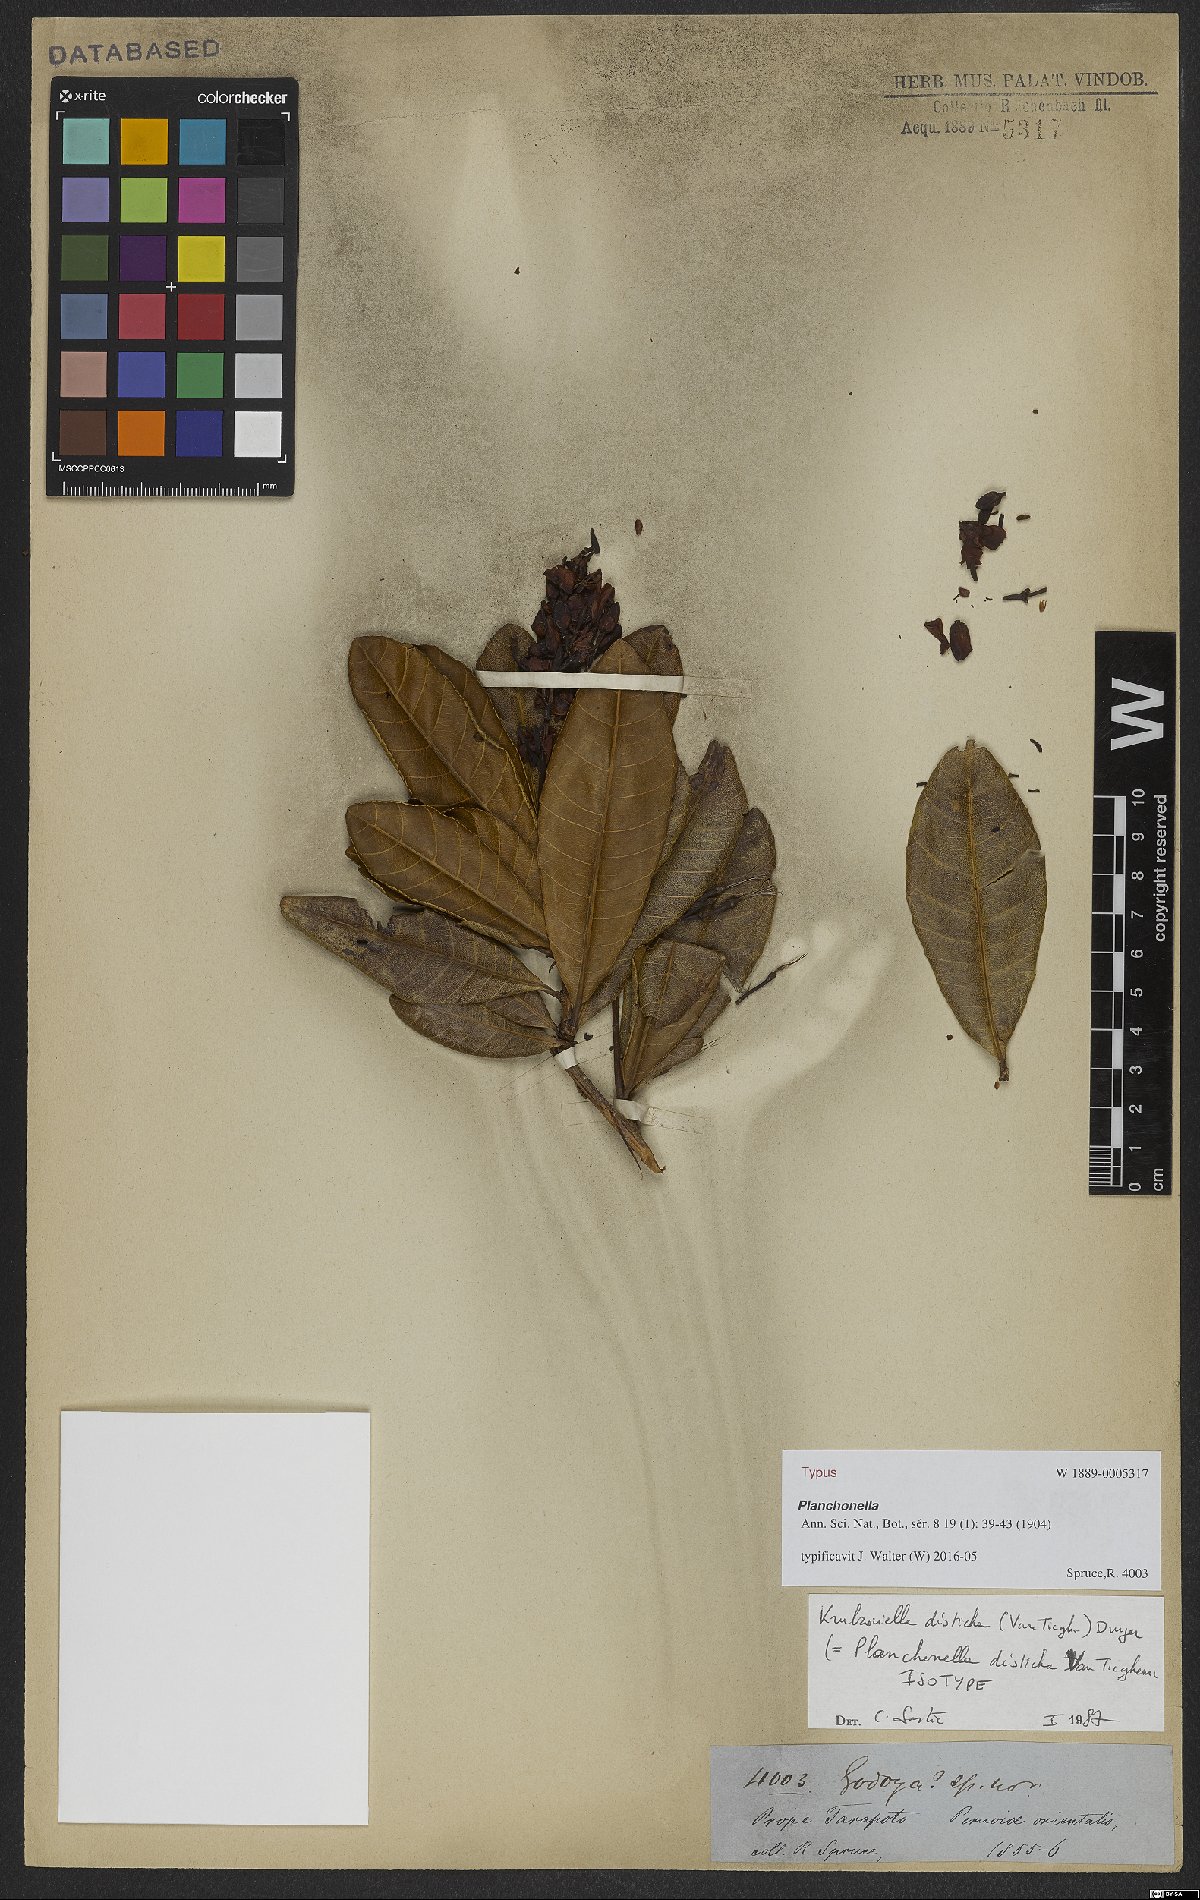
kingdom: Plantae
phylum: Tracheophyta
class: Magnoliopsida
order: Malpighiales
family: Ochnaceae
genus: Krukoviella
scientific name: Krukoviella disticha
